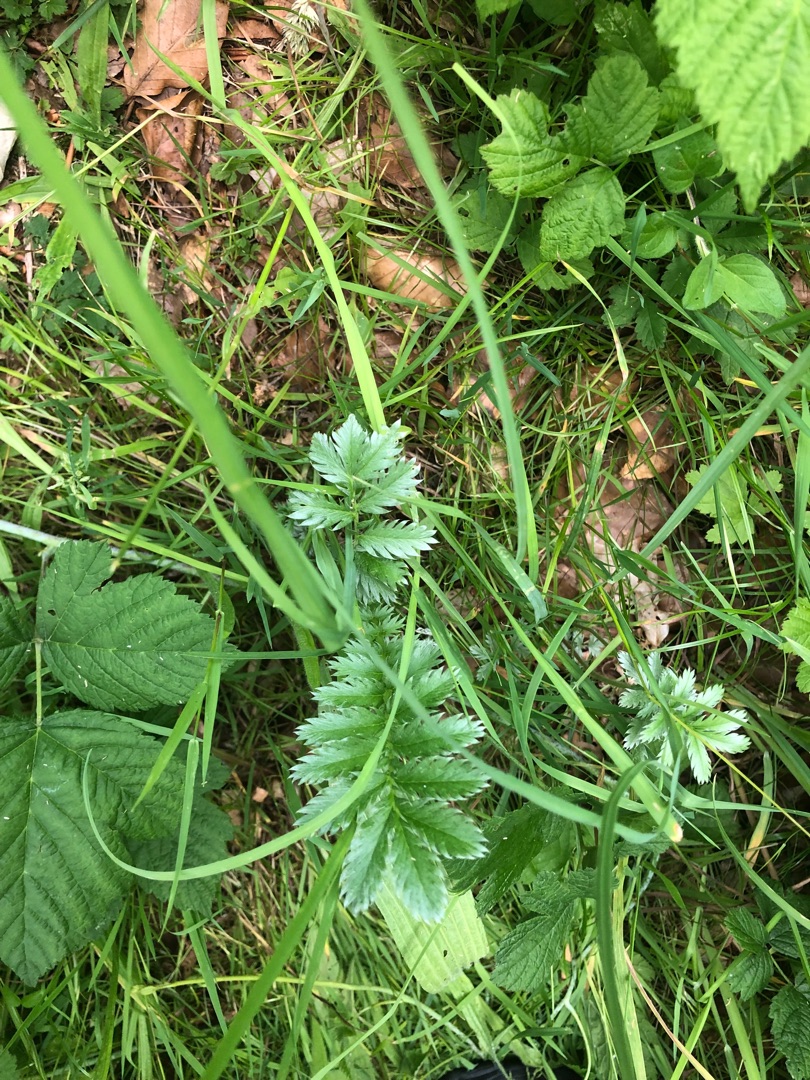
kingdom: Plantae
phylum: Tracheophyta
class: Magnoliopsida
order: Rosales
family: Rosaceae
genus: Argentina
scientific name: Argentina anserina
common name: Gåsepotentil
